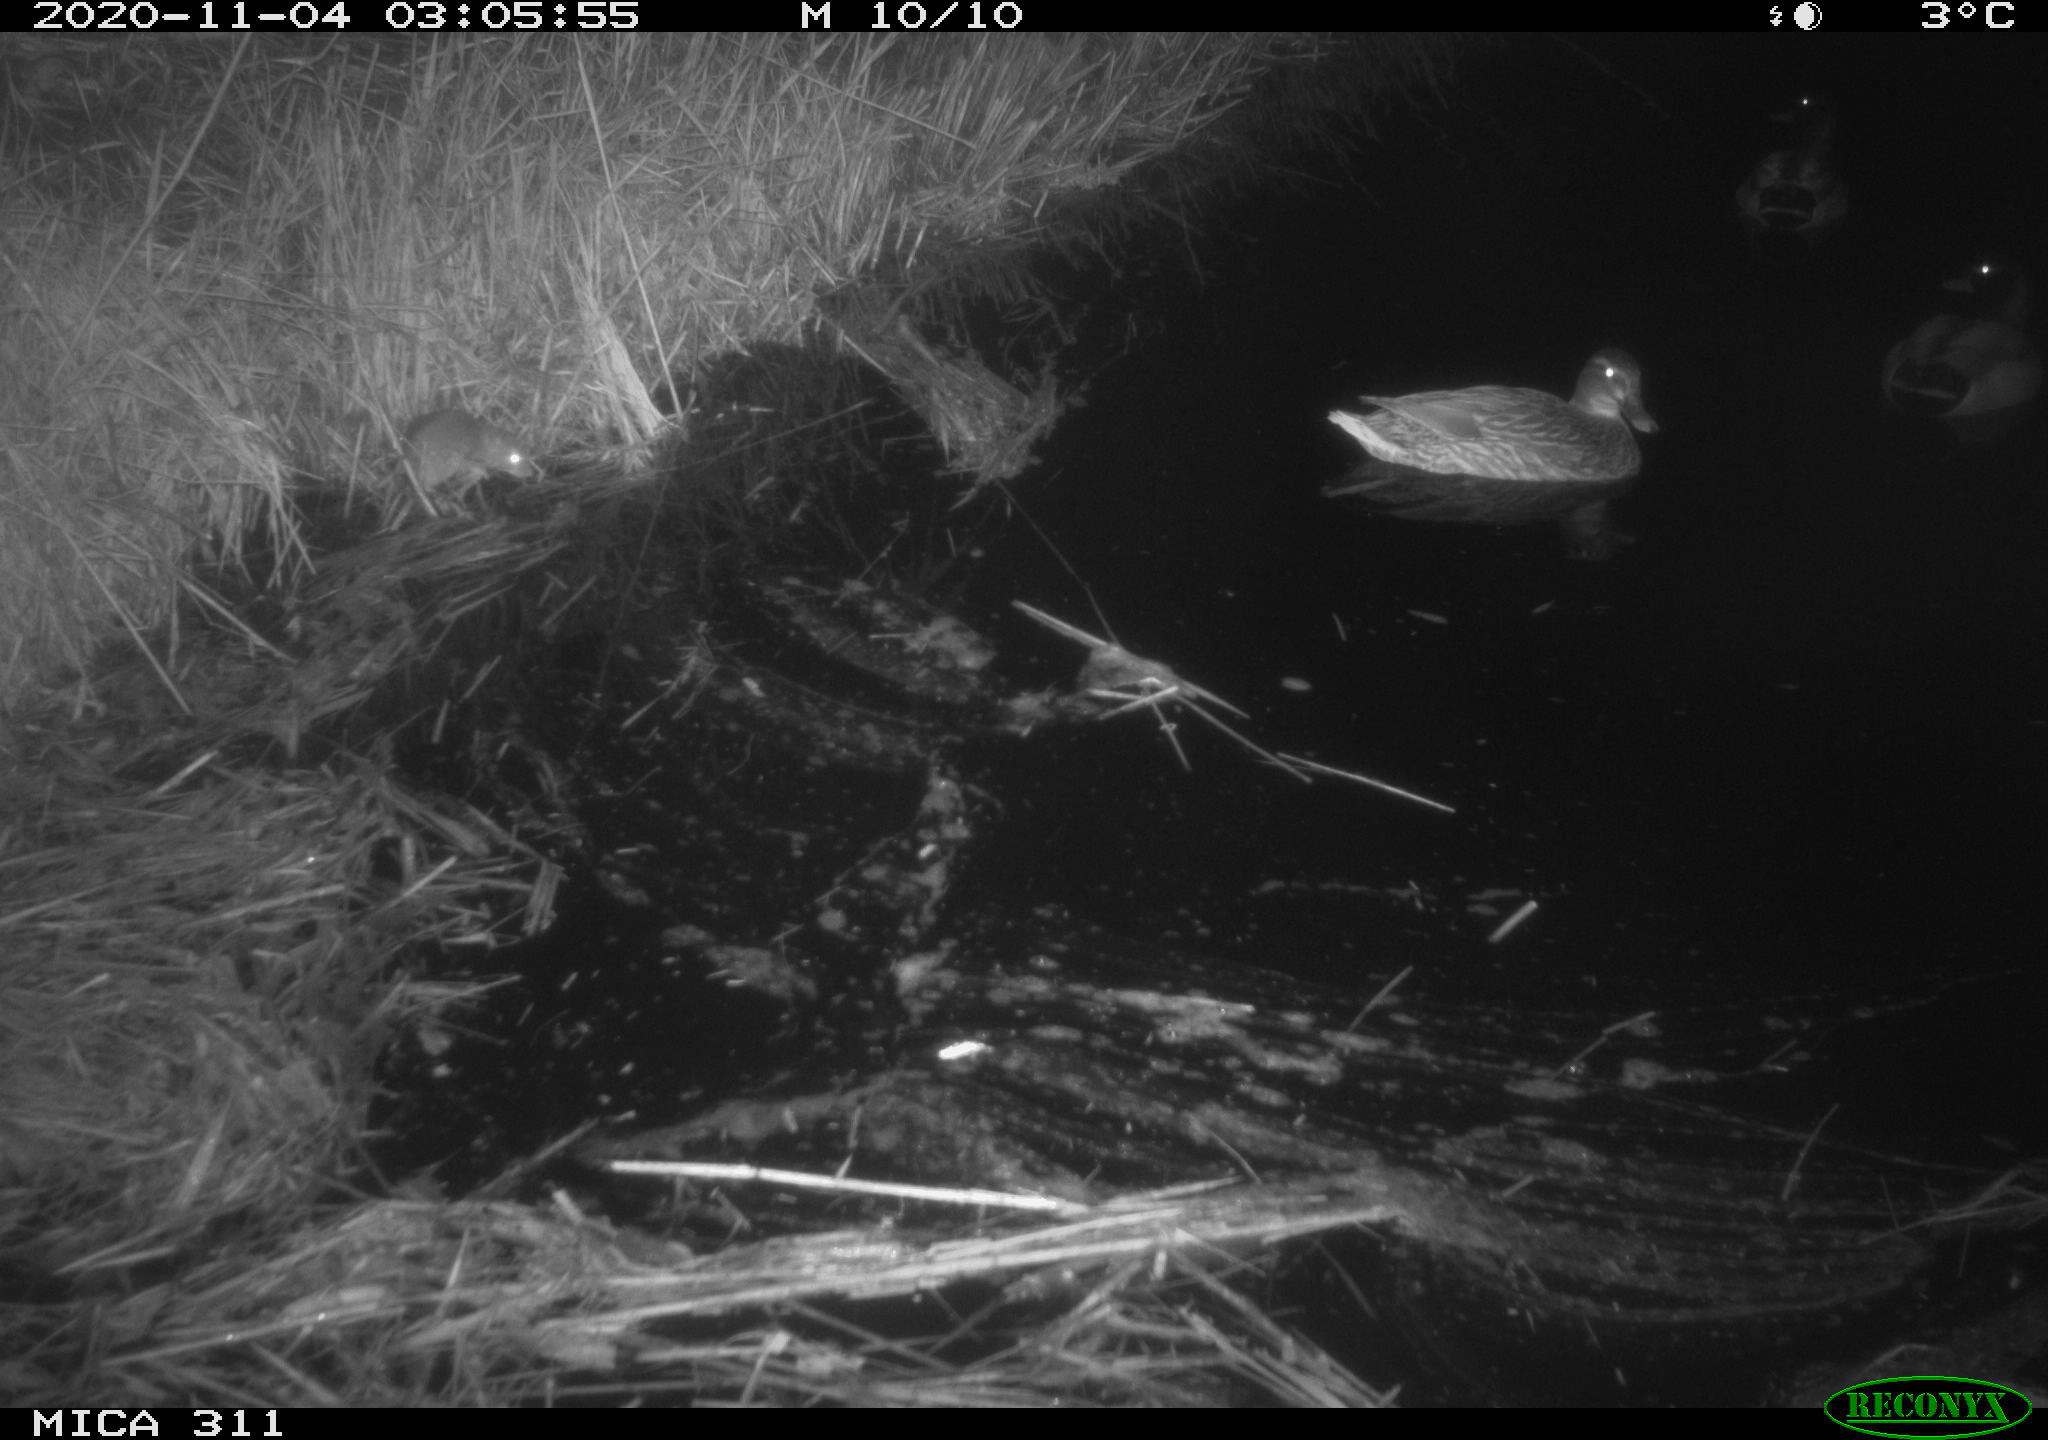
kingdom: Animalia
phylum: Chordata
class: Aves
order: Anseriformes
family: Anatidae
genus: Anas
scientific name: Anas platyrhynchos
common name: Mallard
